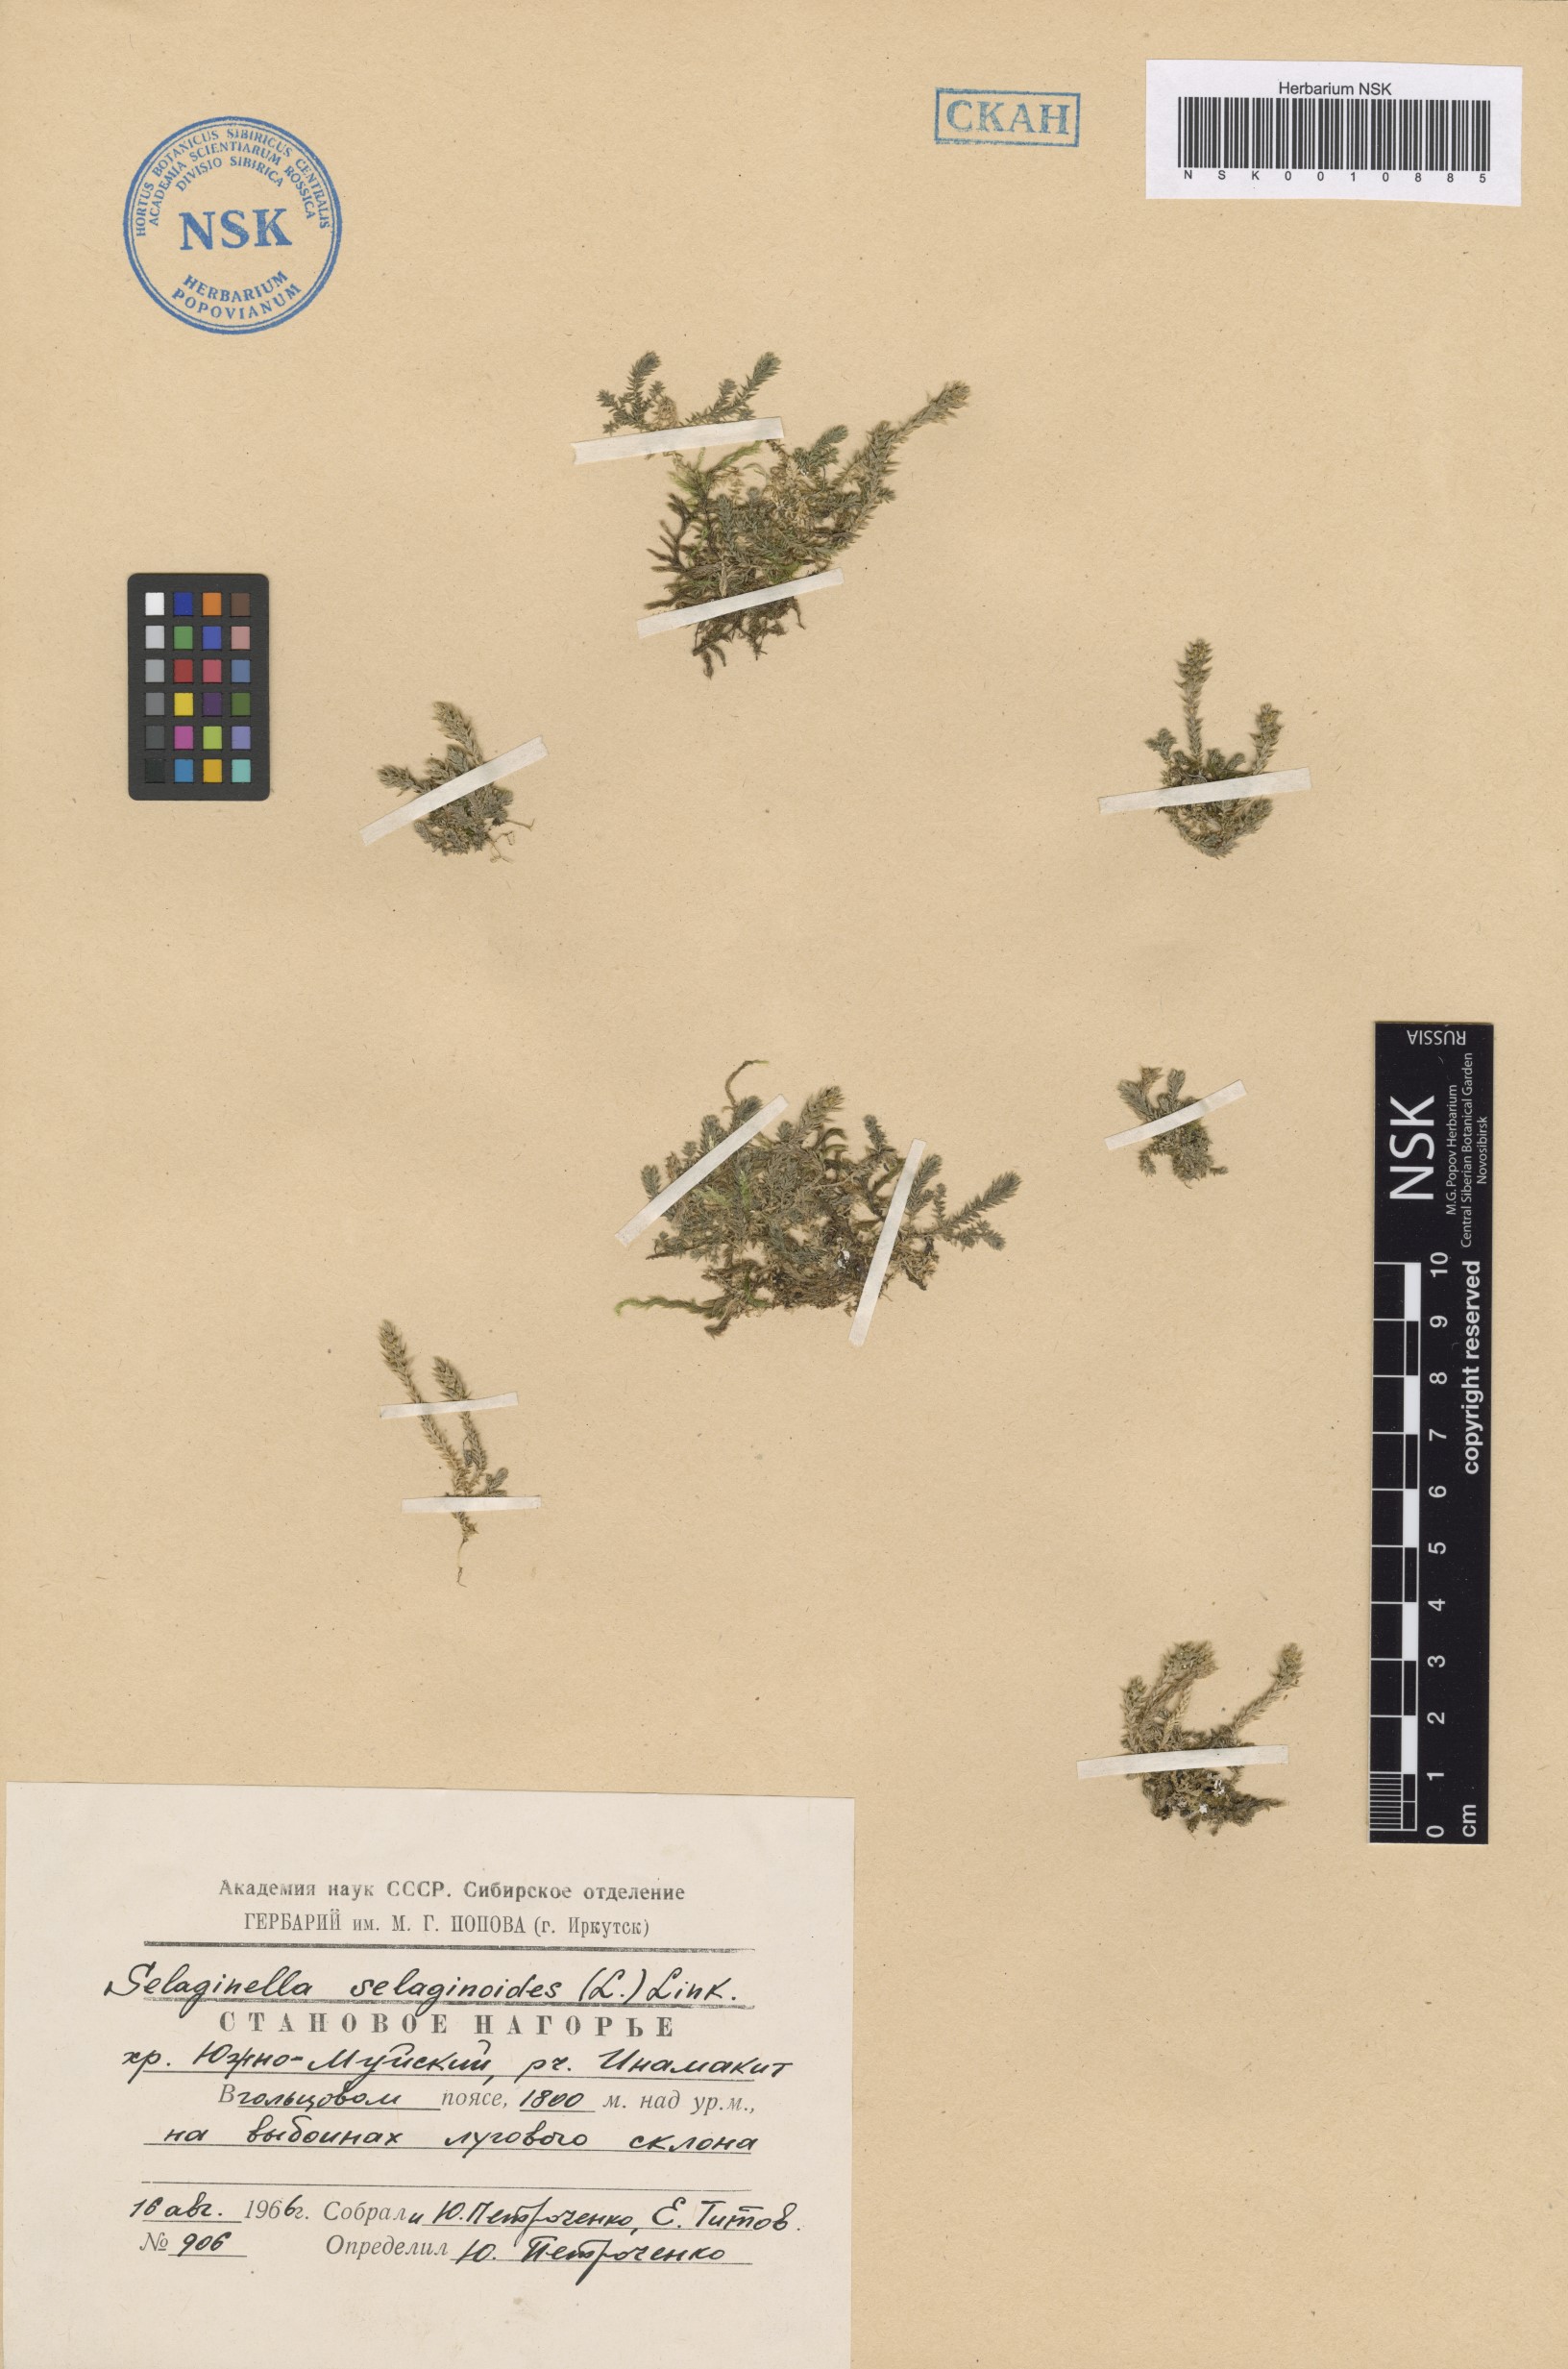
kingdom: Plantae
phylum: Tracheophyta
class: Lycopodiopsida
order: Selaginellales
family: Selaginellaceae
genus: Selaginella
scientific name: Selaginella selaginoides
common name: Prickly mountain-moss
